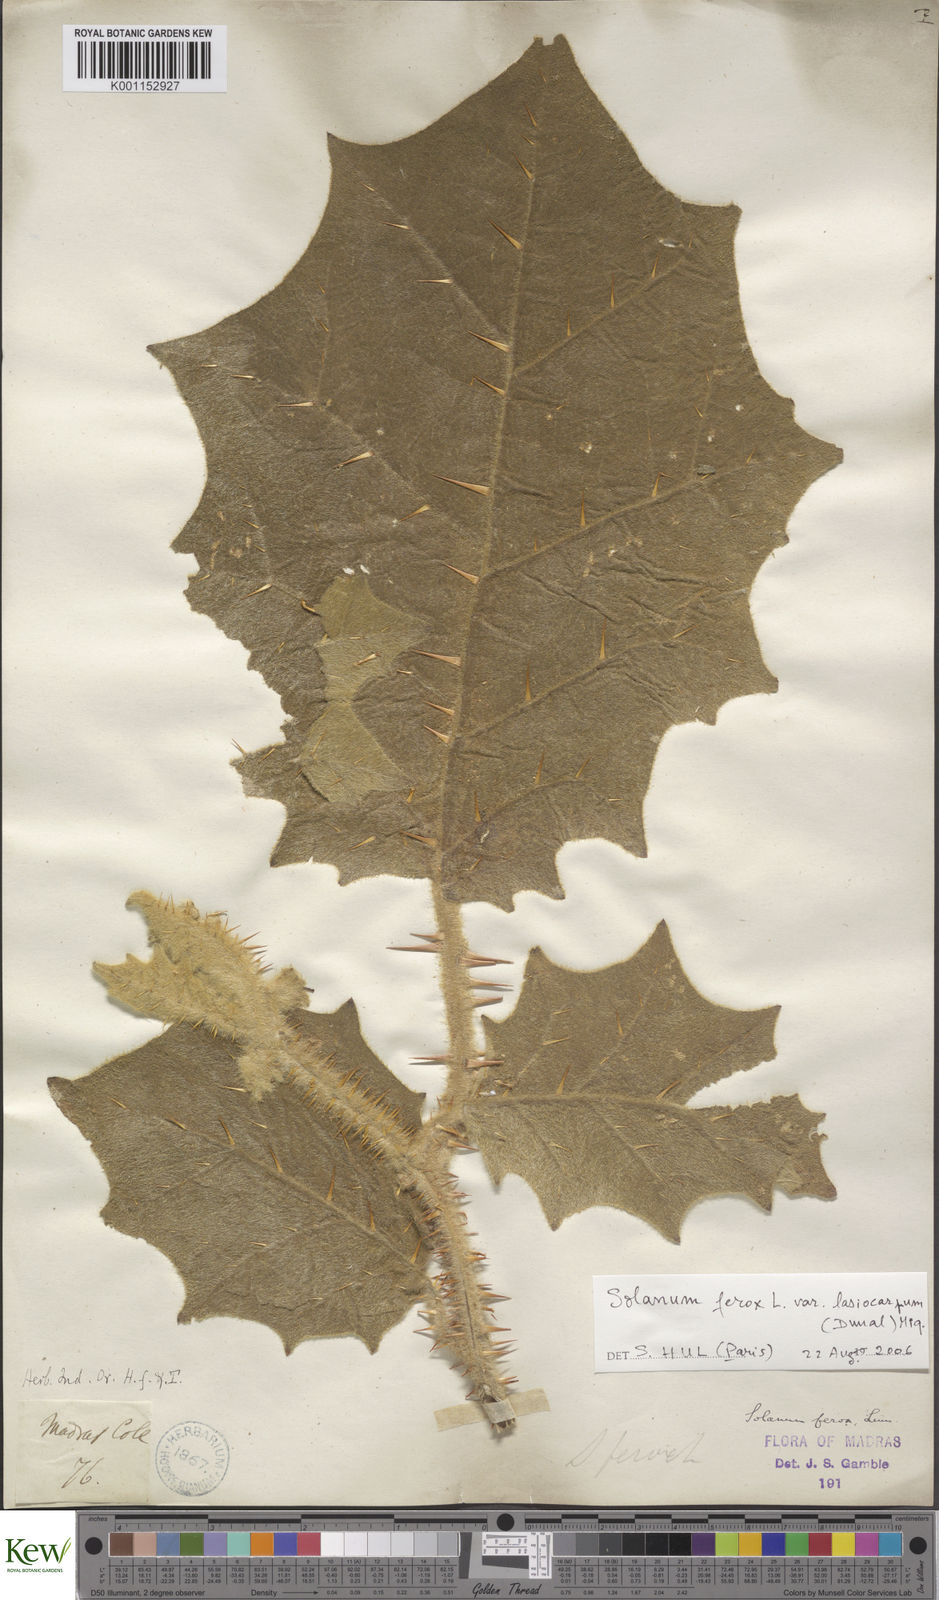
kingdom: Plantae
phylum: Tracheophyta
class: Magnoliopsida
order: Solanales
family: Solanaceae
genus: Solanum
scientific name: Solanum
